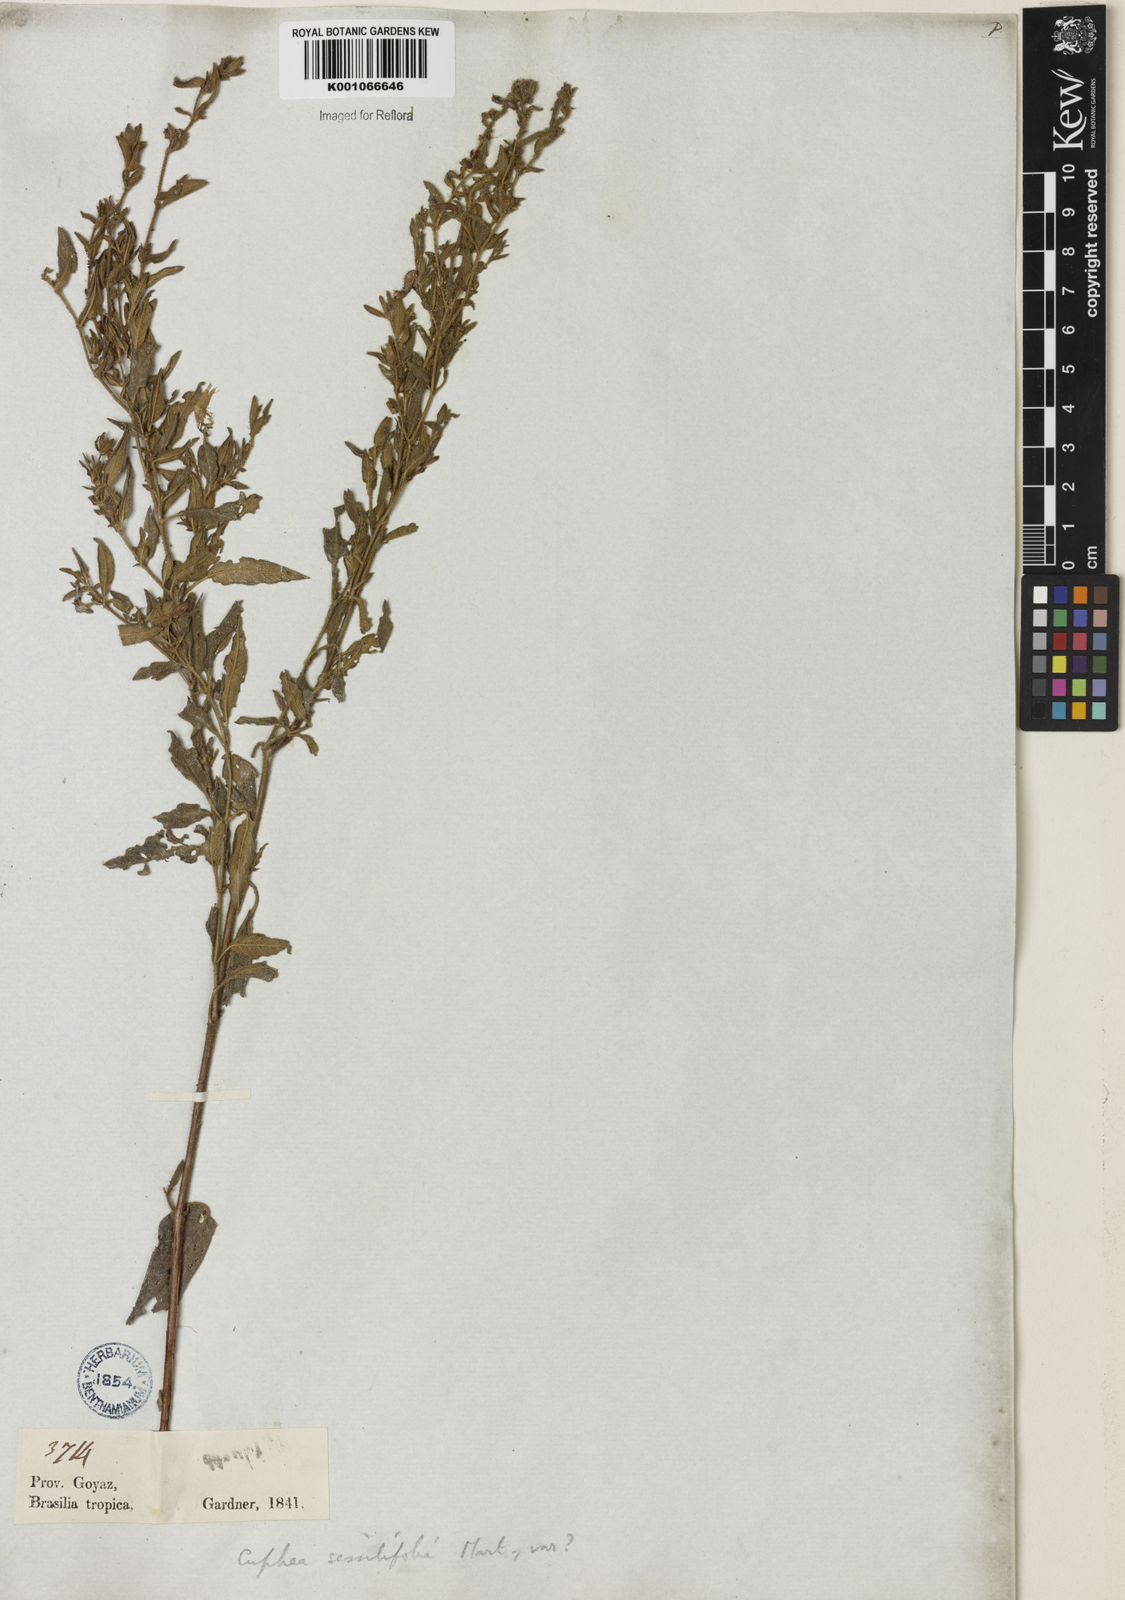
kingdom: Plantae
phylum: Tracheophyta
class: Magnoliopsida
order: Myrtales
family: Lythraceae
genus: Cuphea
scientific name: Cuphea sessilifolia
